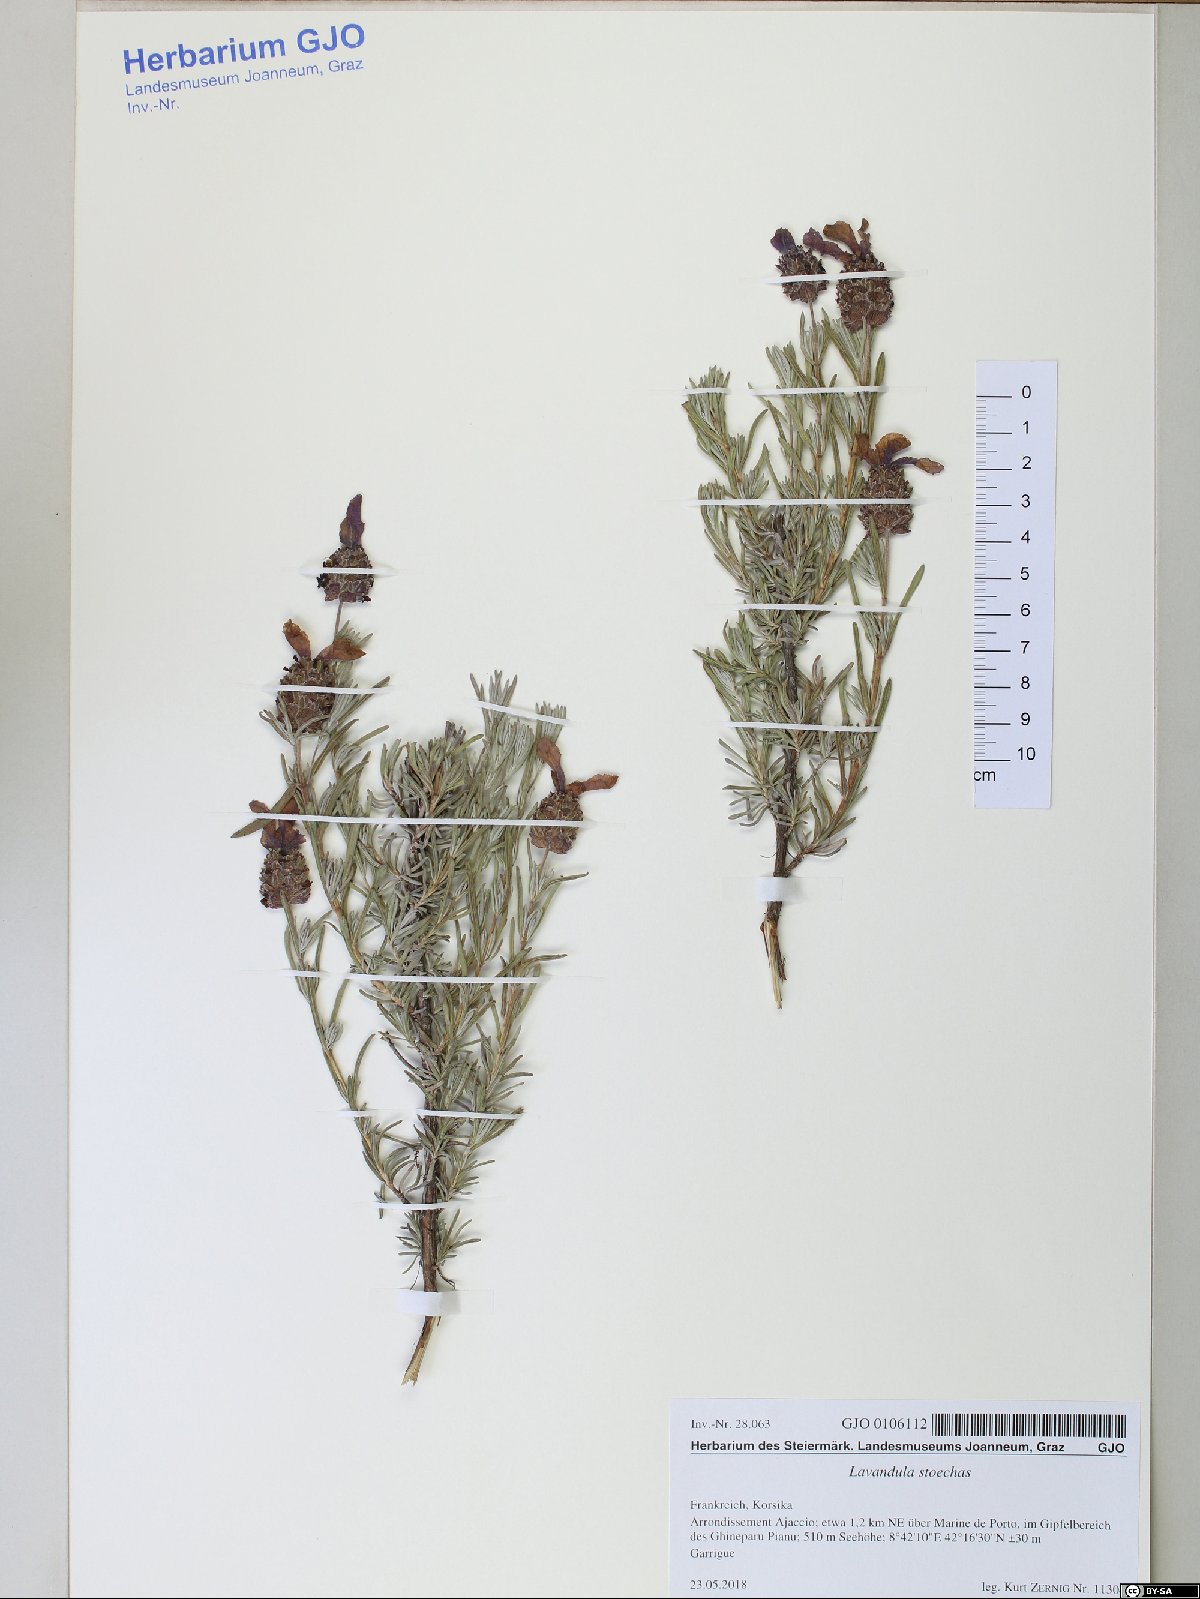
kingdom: Plantae
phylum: Tracheophyta
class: Magnoliopsida
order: Lamiales
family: Lamiaceae
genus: Lavandula
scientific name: Lavandula stoechas
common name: French lavender
